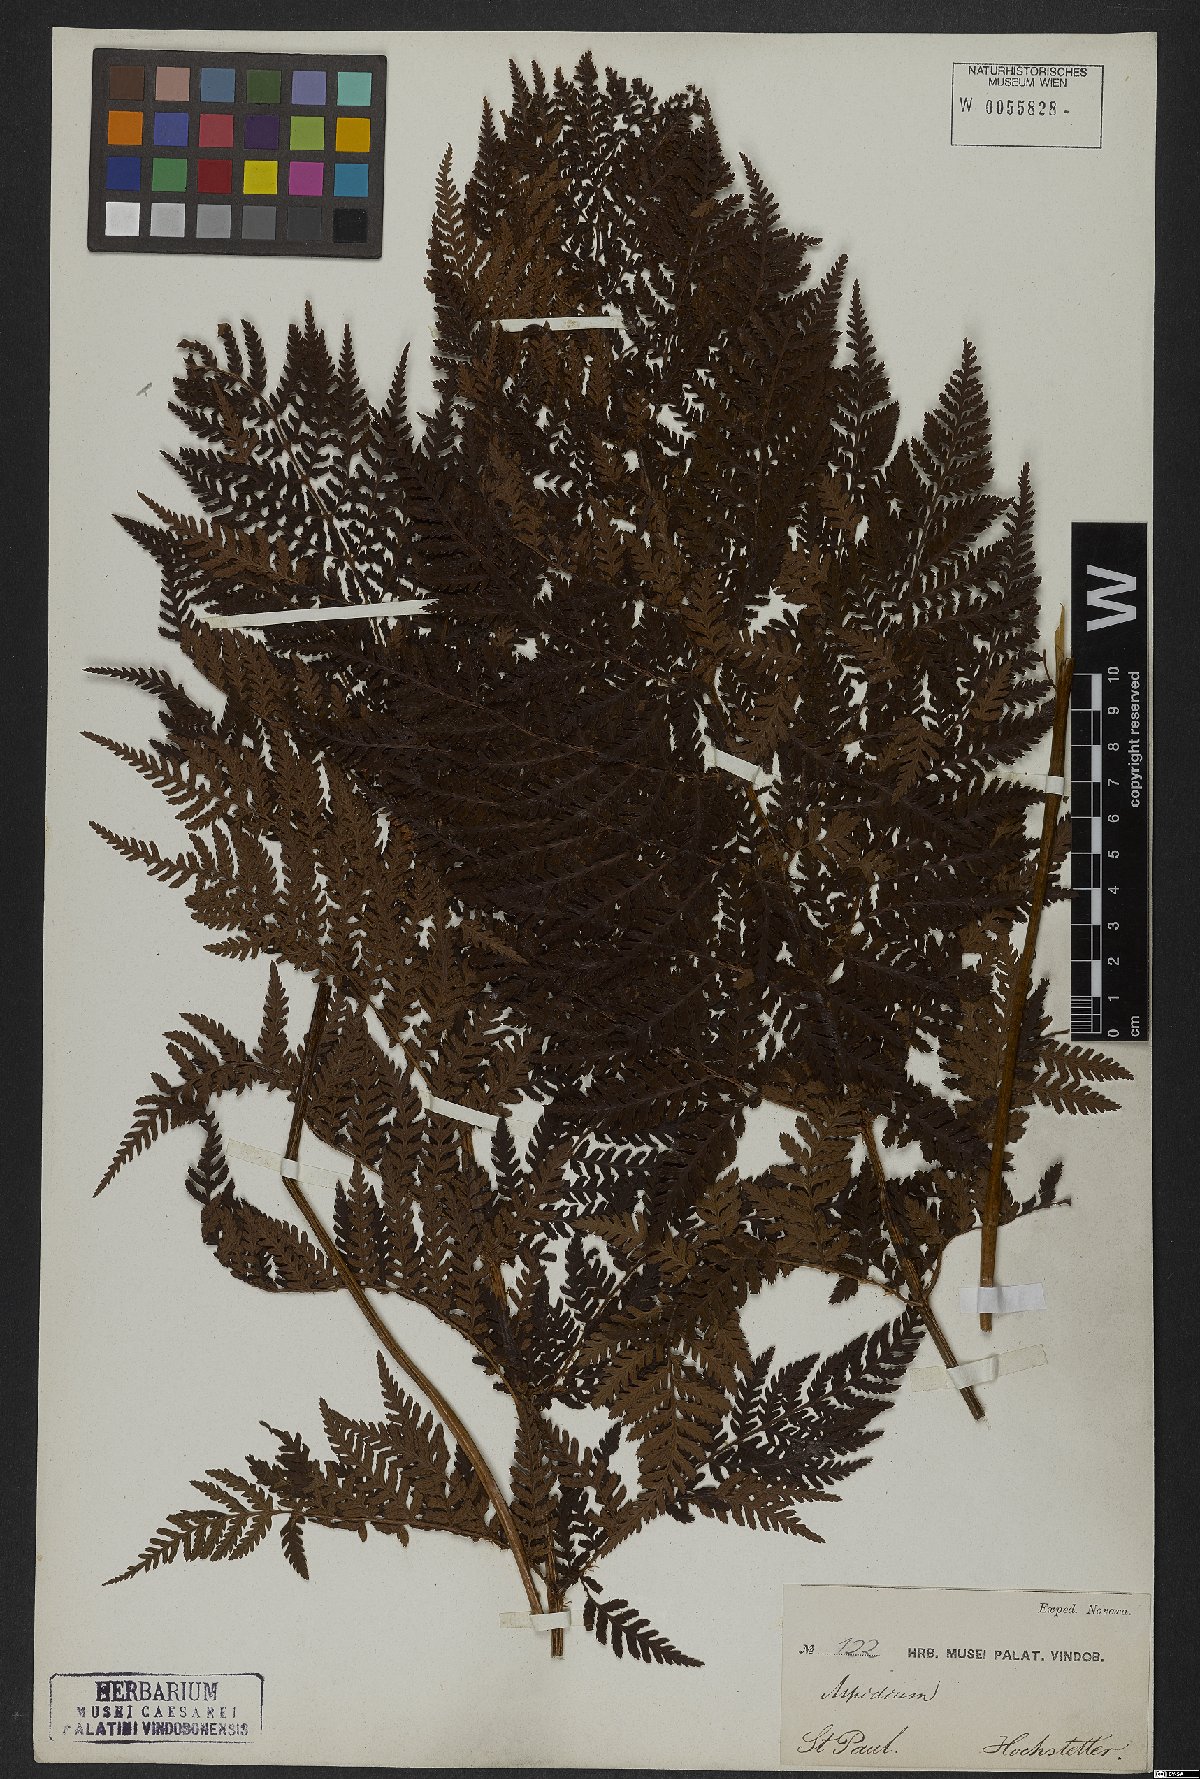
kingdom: Plantae
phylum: Tracheophyta
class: Polypodiopsida
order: Polypodiales
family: Dryopteridaceae
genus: Dryopteris
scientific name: Dryopteris
